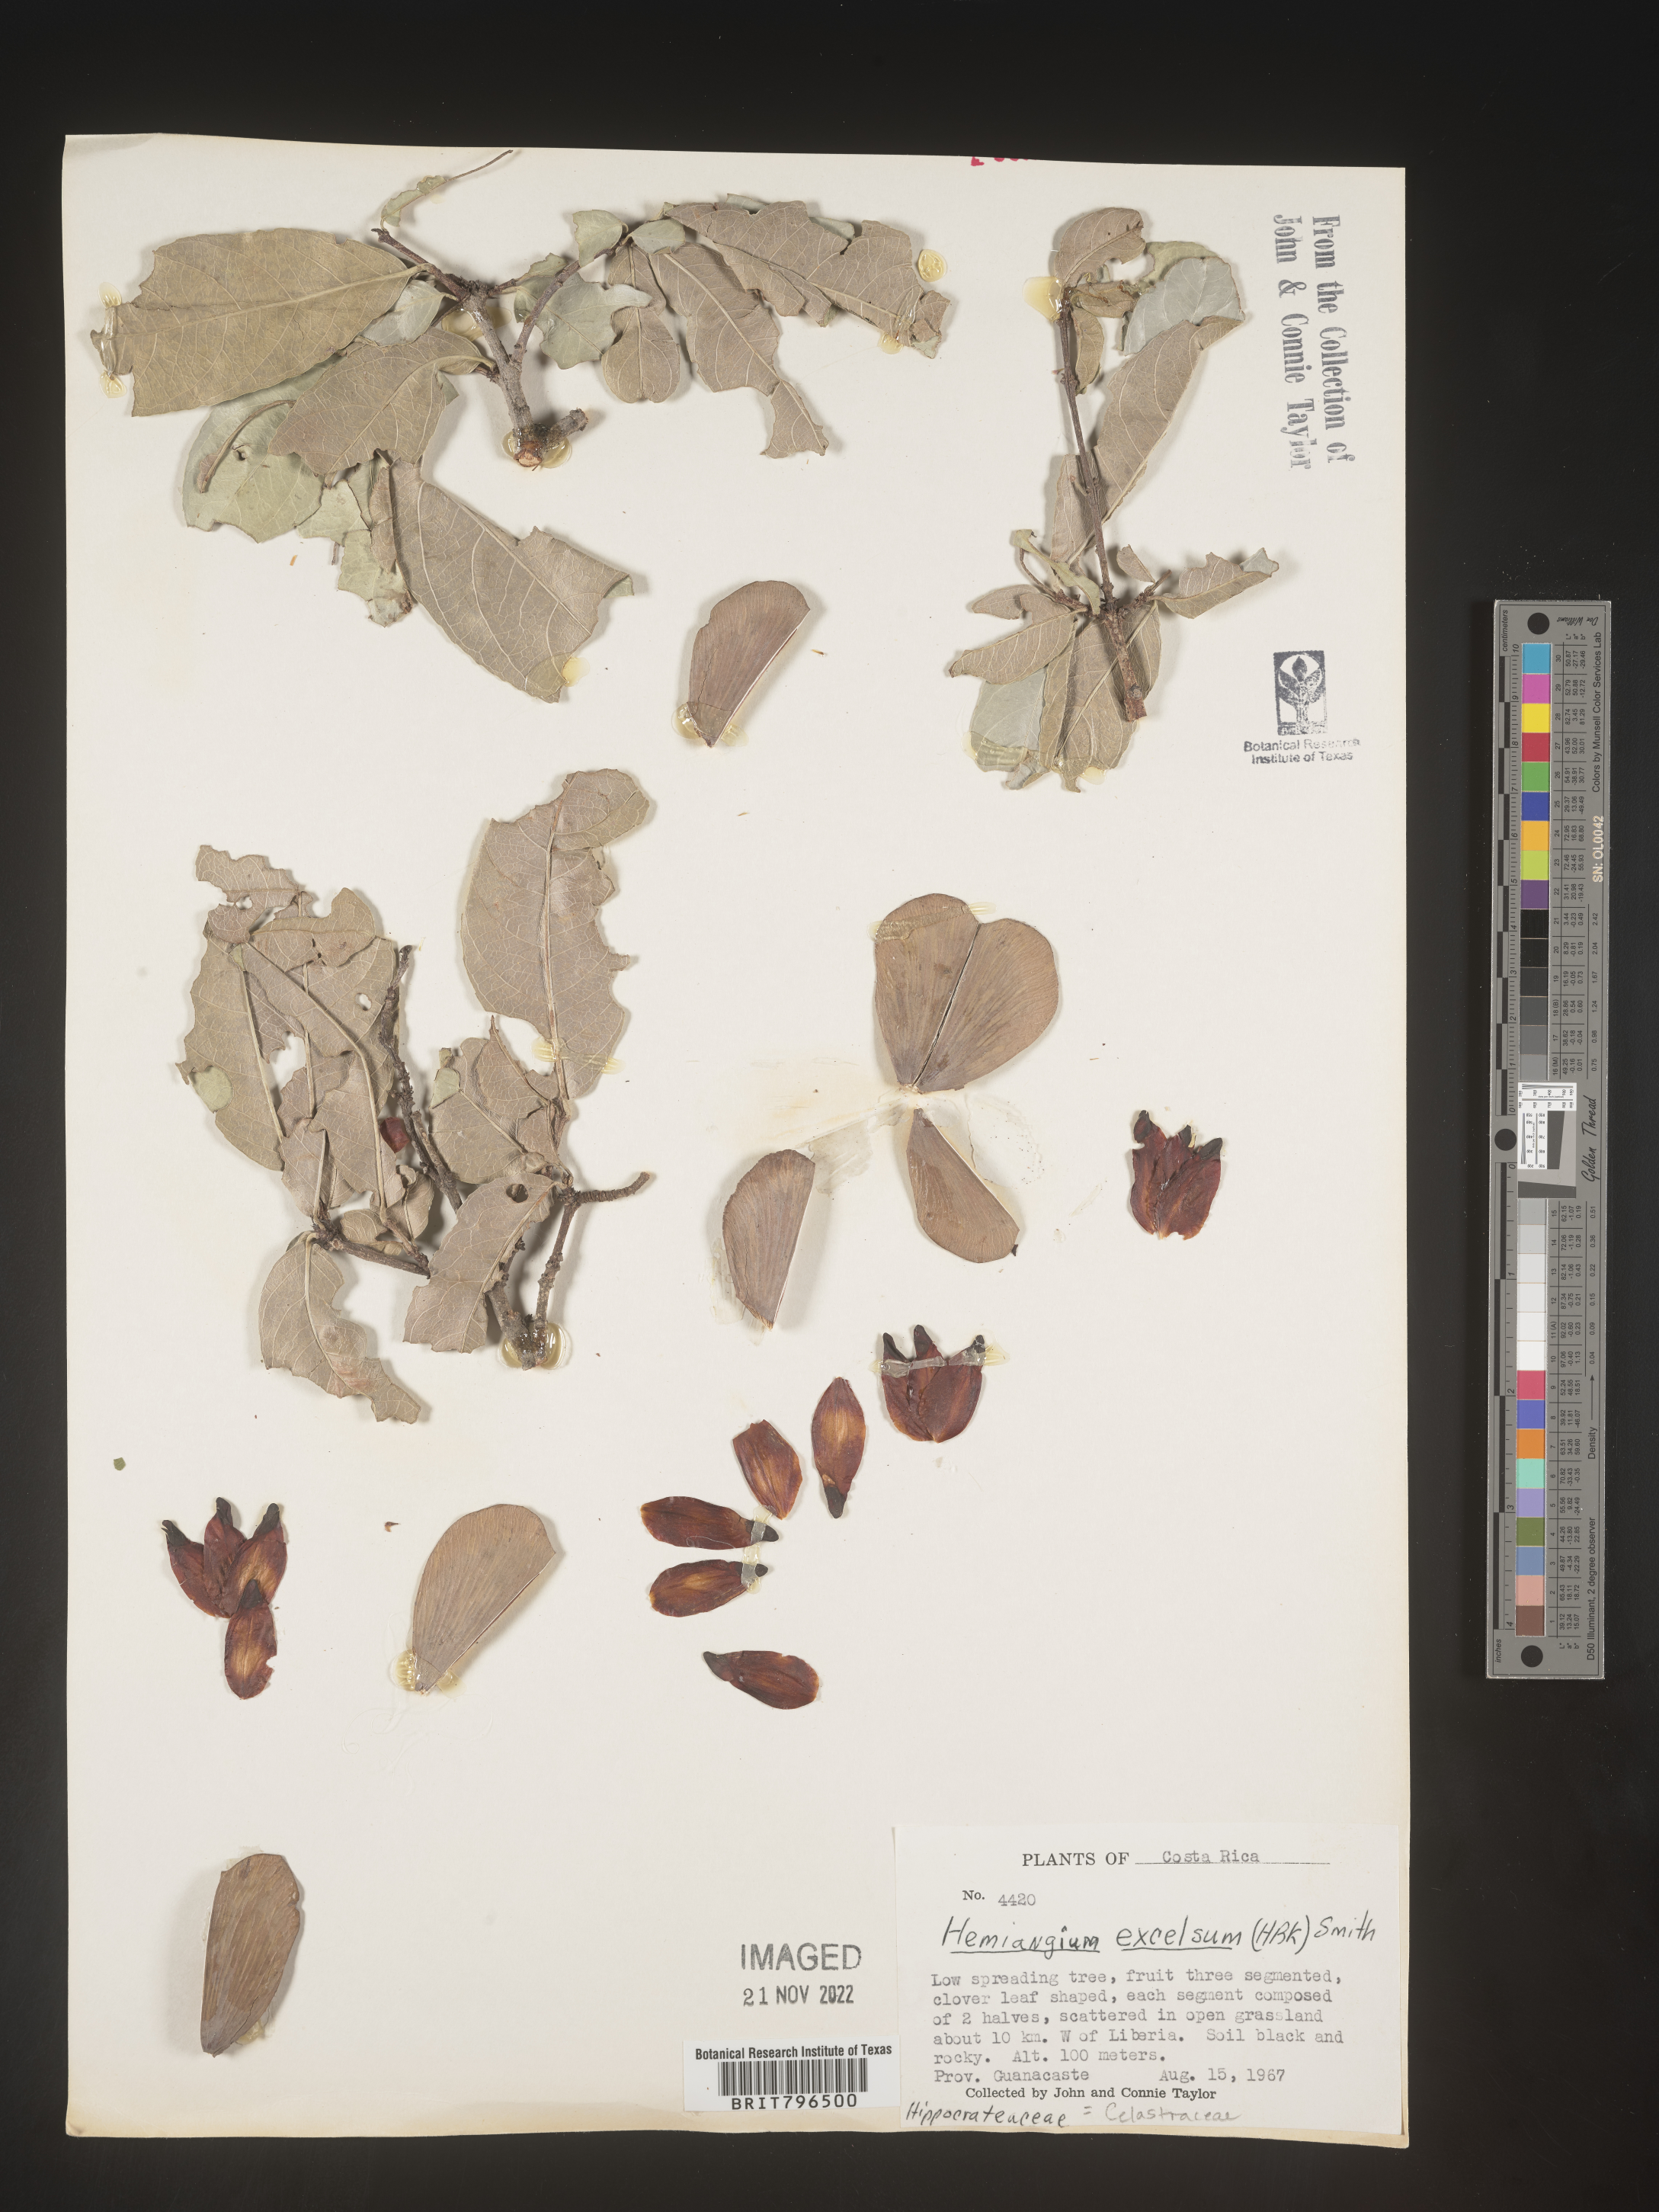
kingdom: Plantae
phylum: Tracheophyta
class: Magnoliopsida
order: Celastrales
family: Celastraceae
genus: Semialarium
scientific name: Semialarium
